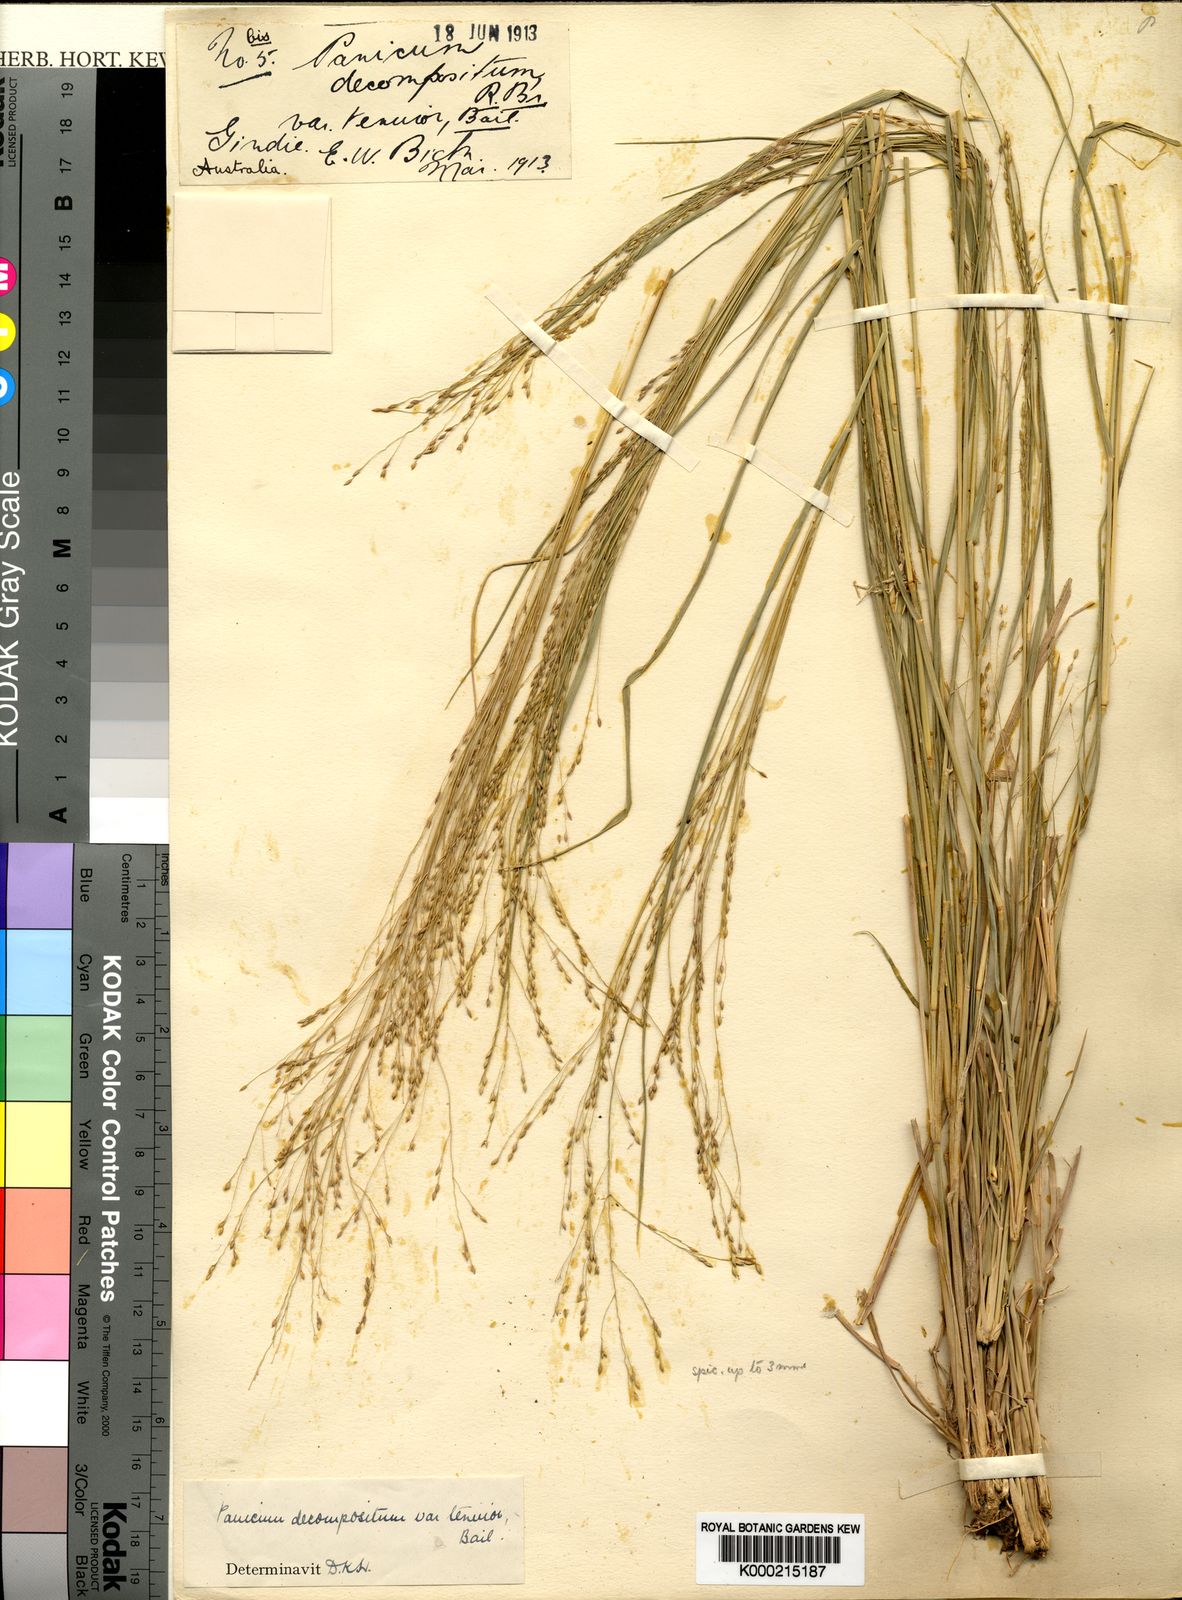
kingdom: Plantae
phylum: Tracheophyta
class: Liliopsida
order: Poales
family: Poaceae
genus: Panicum
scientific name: Panicum decompositum
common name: Australian millet
